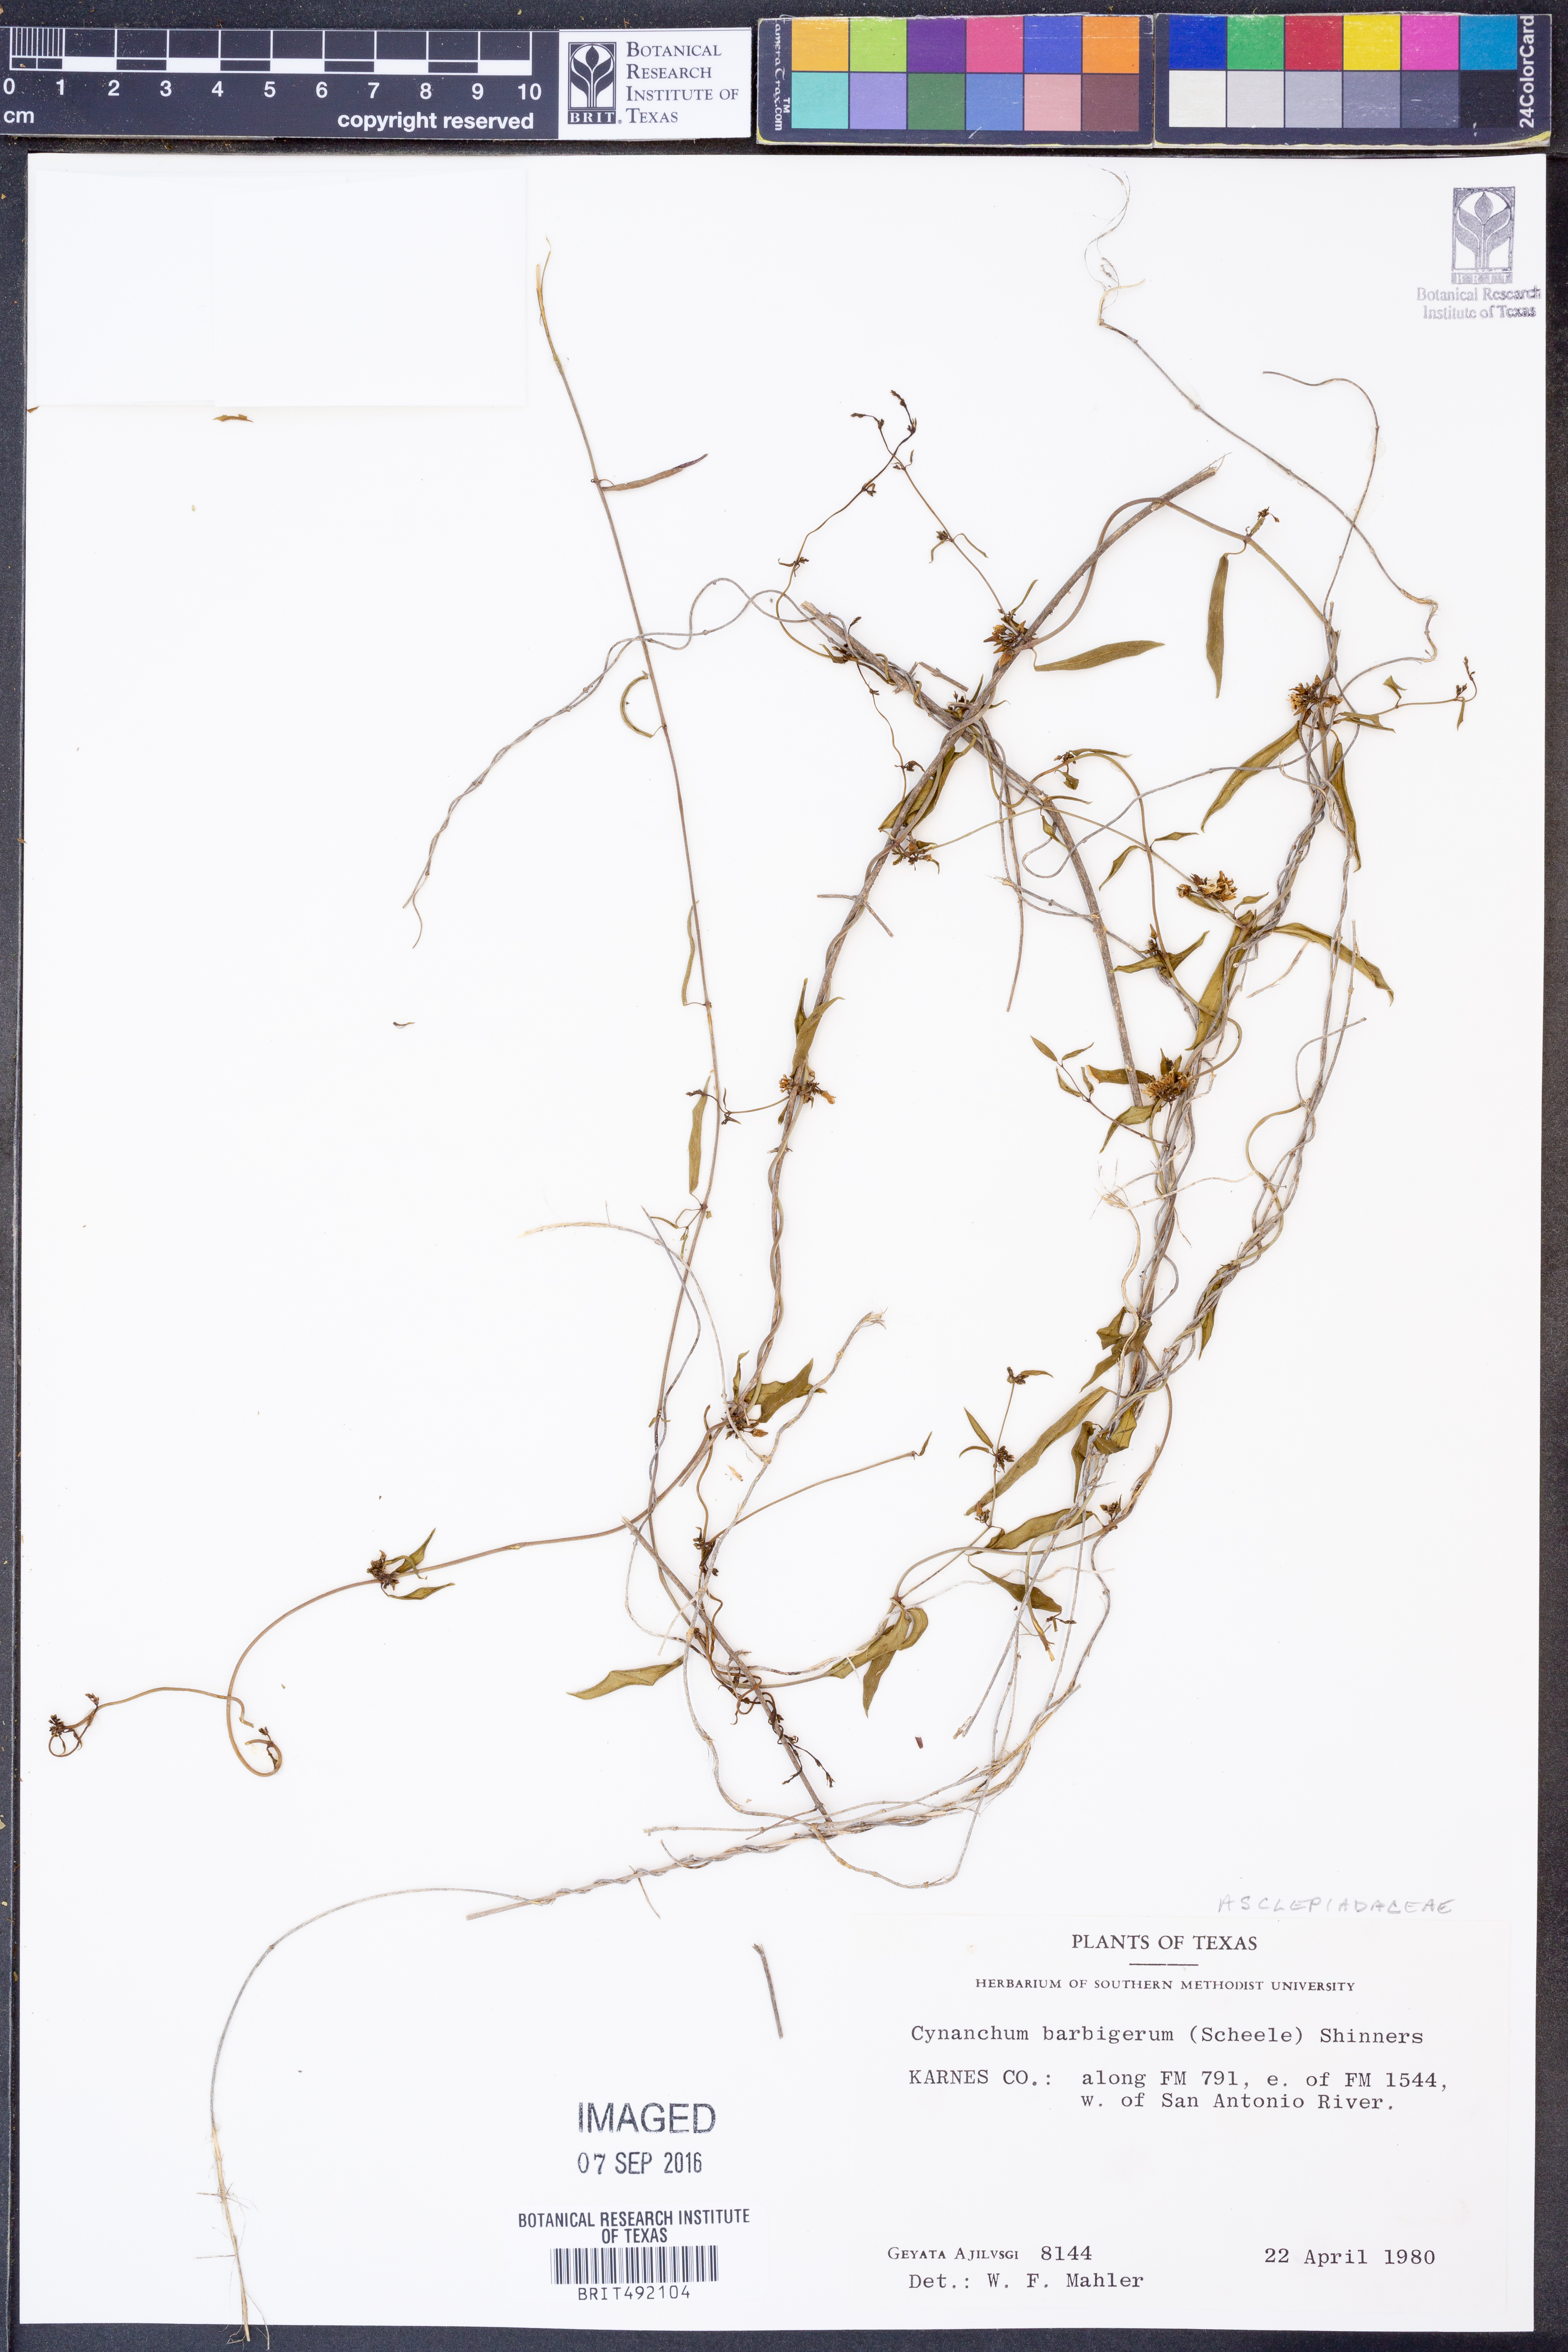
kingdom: Plantae
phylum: Tracheophyta
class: Magnoliopsida
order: Gentianales
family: Apocynaceae
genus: Metastelma
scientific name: Metastelma barbigerum
